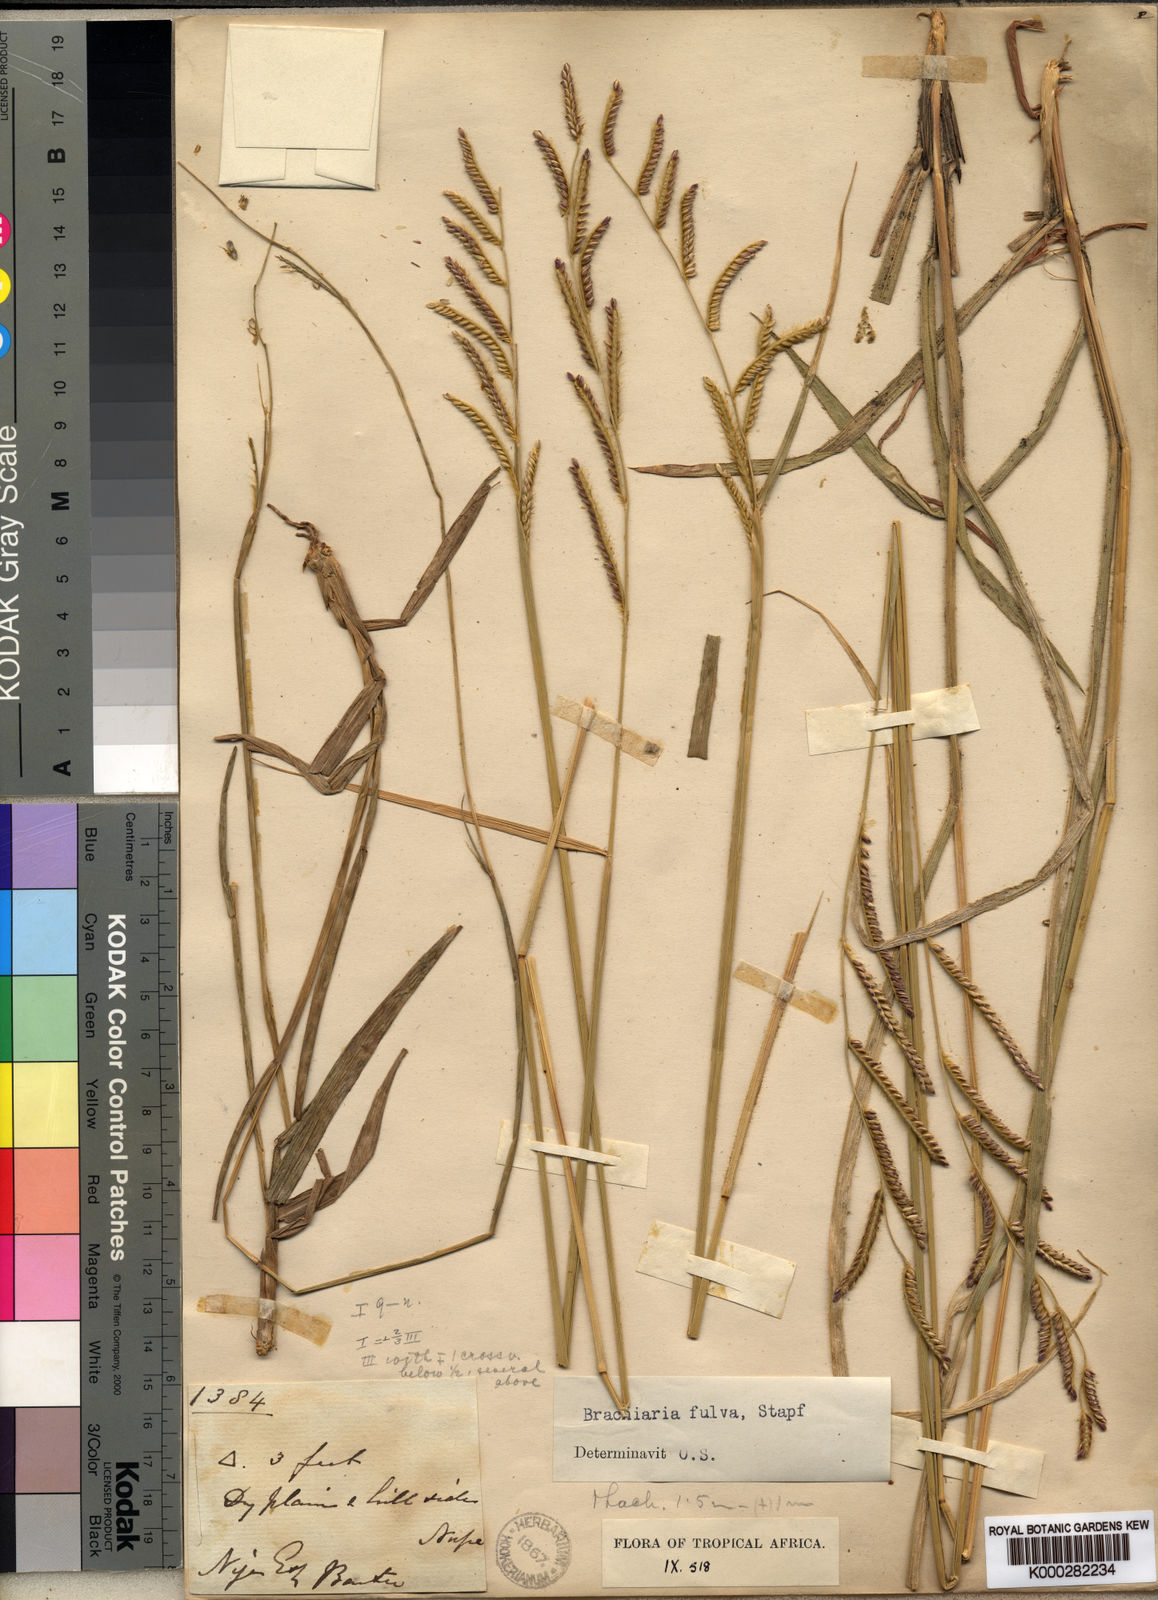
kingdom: Plantae
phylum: Tracheophyta
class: Liliopsida
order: Poales
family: Poaceae
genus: Urochloa
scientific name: Urochloa jubata
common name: Buffalograss
